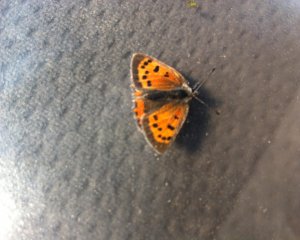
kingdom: Animalia
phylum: Arthropoda
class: Insecta
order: Lepidoptera
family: Lycaenidae
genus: Lycaena
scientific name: Lycaena phlaeas
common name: American Copper
